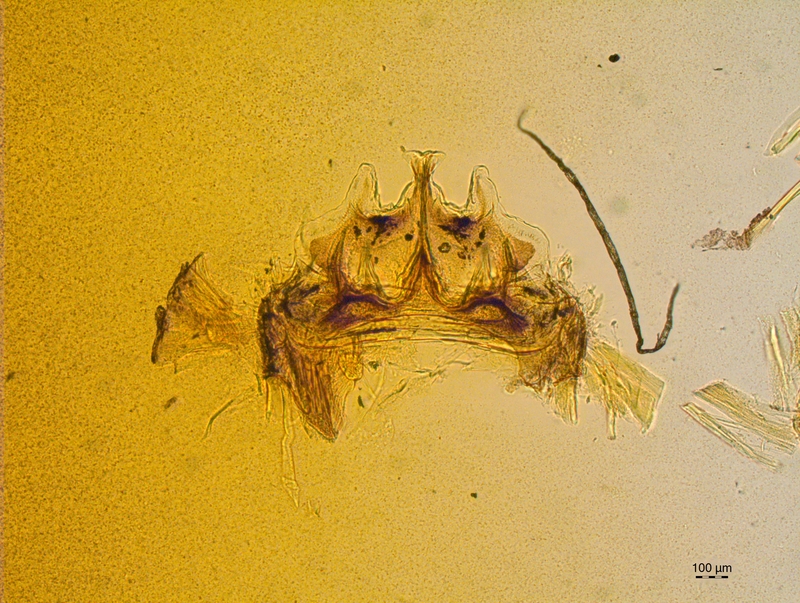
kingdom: Animalia
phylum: Arthropoda
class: Diplopoda
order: Chordeumatida
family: Craspedosomatidae
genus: Craspedosoma
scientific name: Craspedosoma rawlinsii
